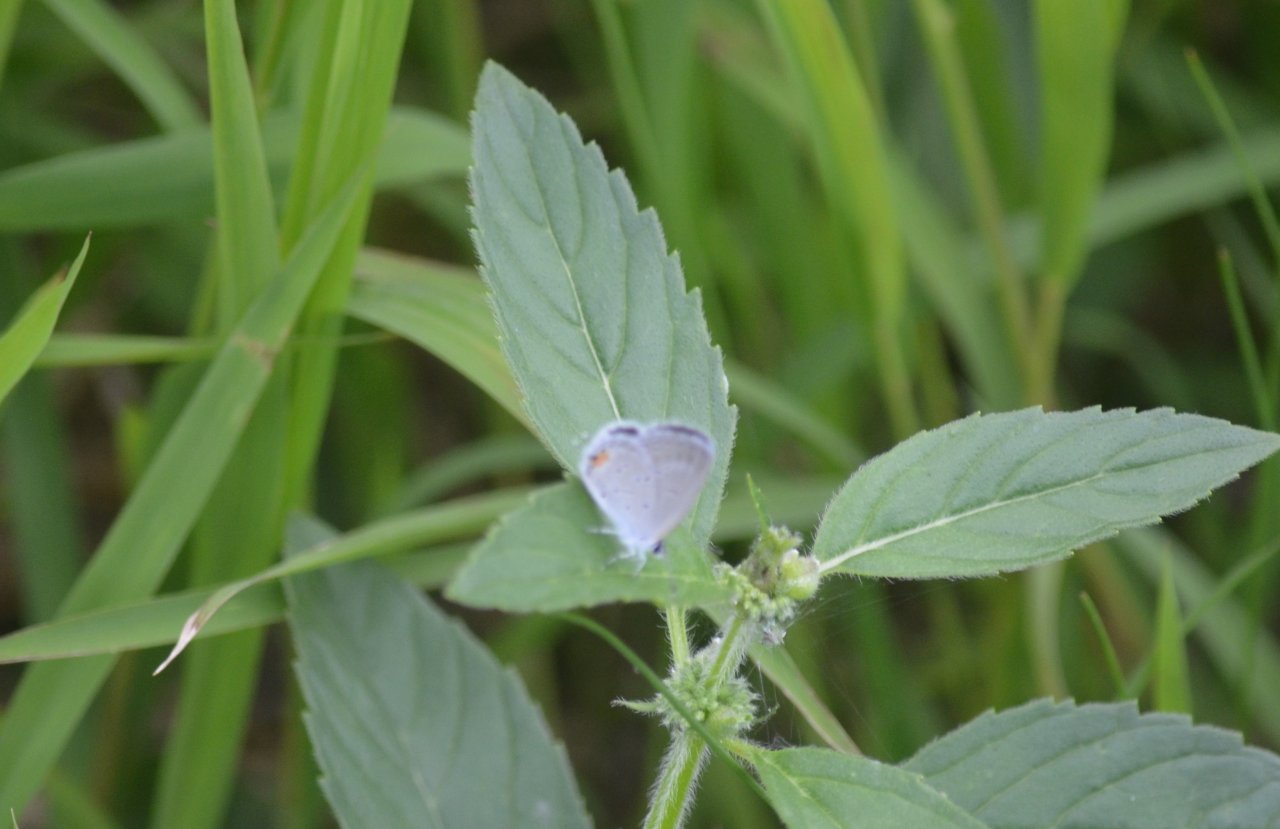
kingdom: Animalia
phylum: Arthropoda
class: Insecta
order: Lepidoptera
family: Lycaenidae
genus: Elkalyce
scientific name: Elkalyce comyntas
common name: Eastern Tailed-Blue
